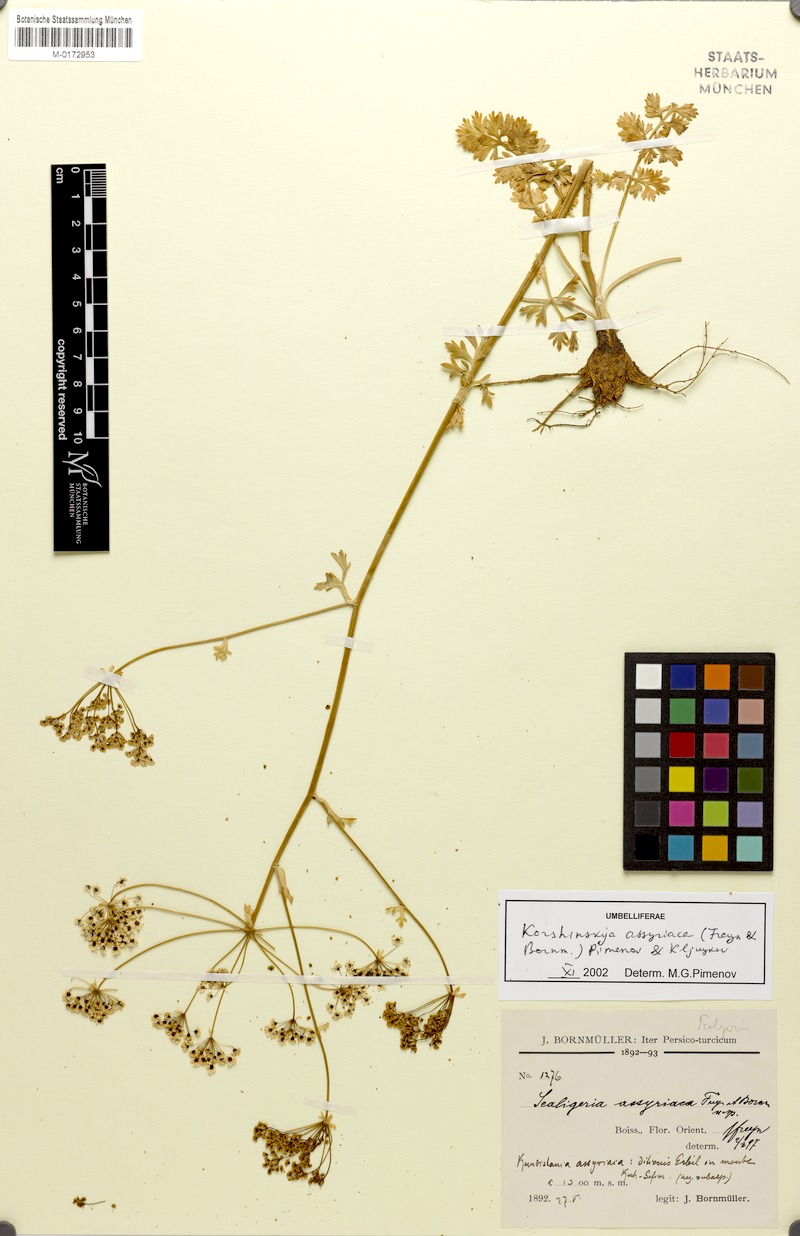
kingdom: Plantae
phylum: Tracheophyta
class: Magnoliopsida
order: Apiales
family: Apiaceae
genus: Korshinskia
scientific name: Korshinskia assyriaca
